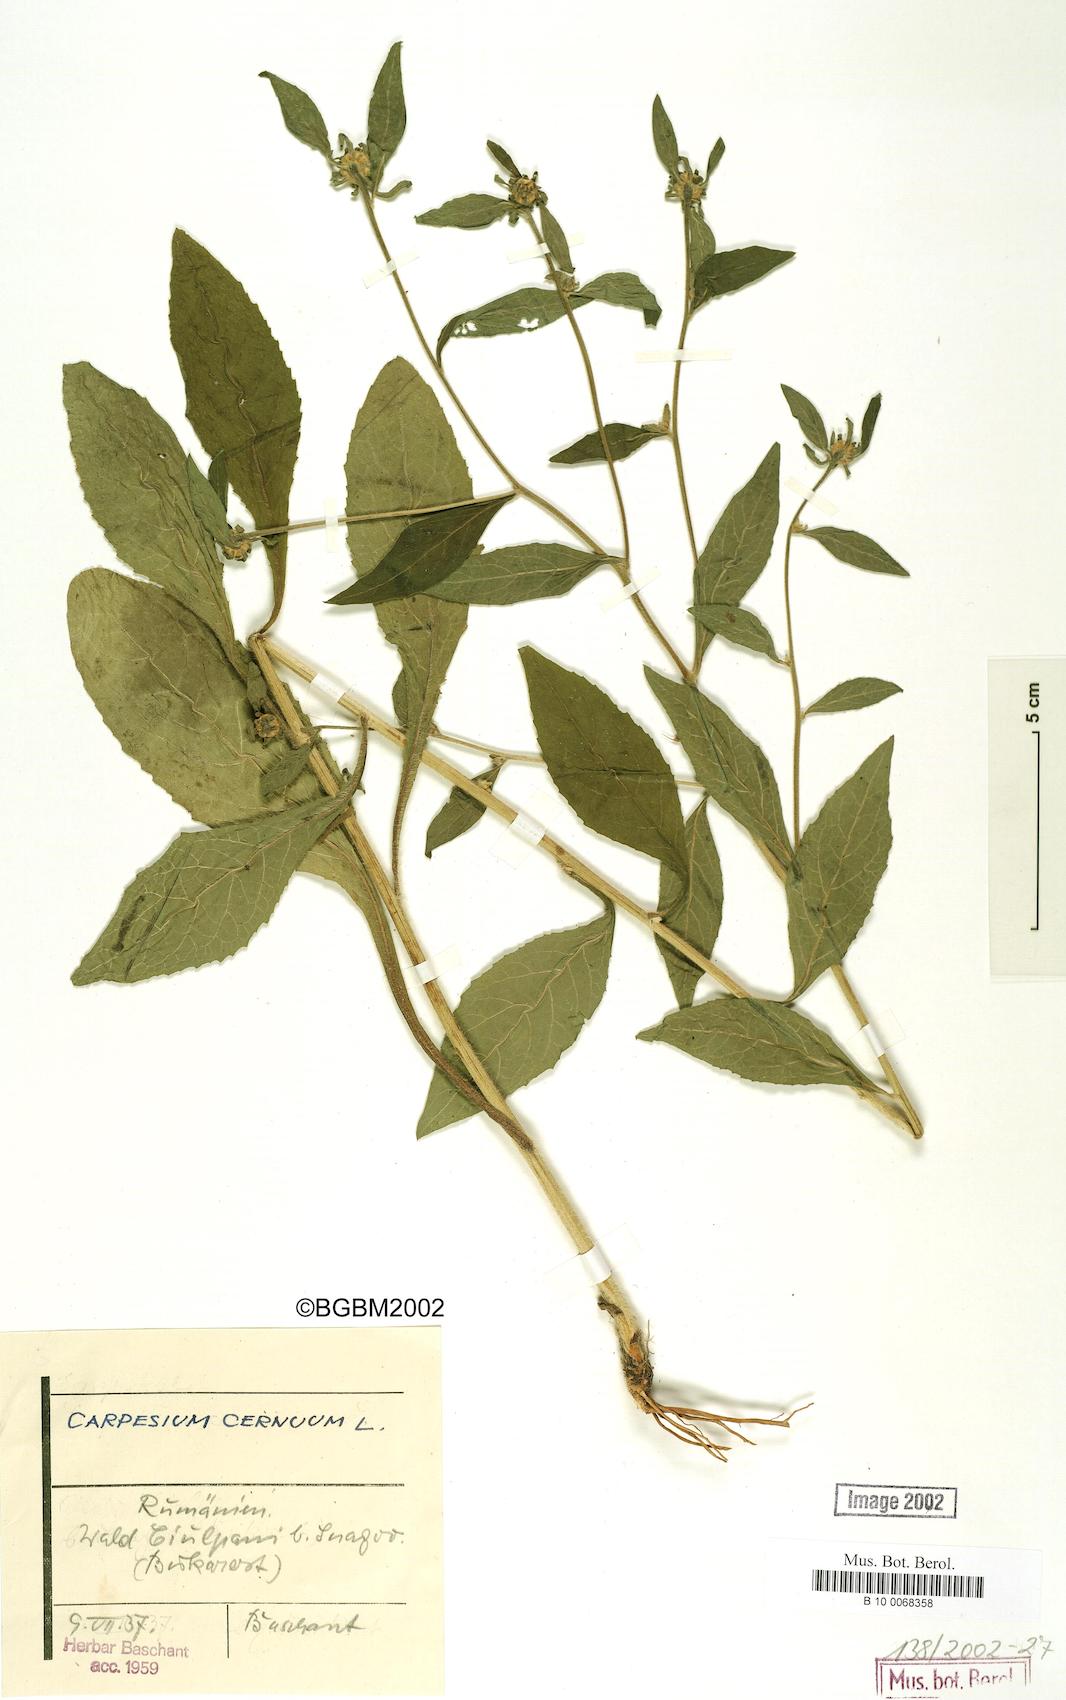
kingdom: Plantae
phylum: Tracheophyta
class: Magnoliopsida
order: Asterales
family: Asteraceae
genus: Carpesium
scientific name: Carpesium cernuum
